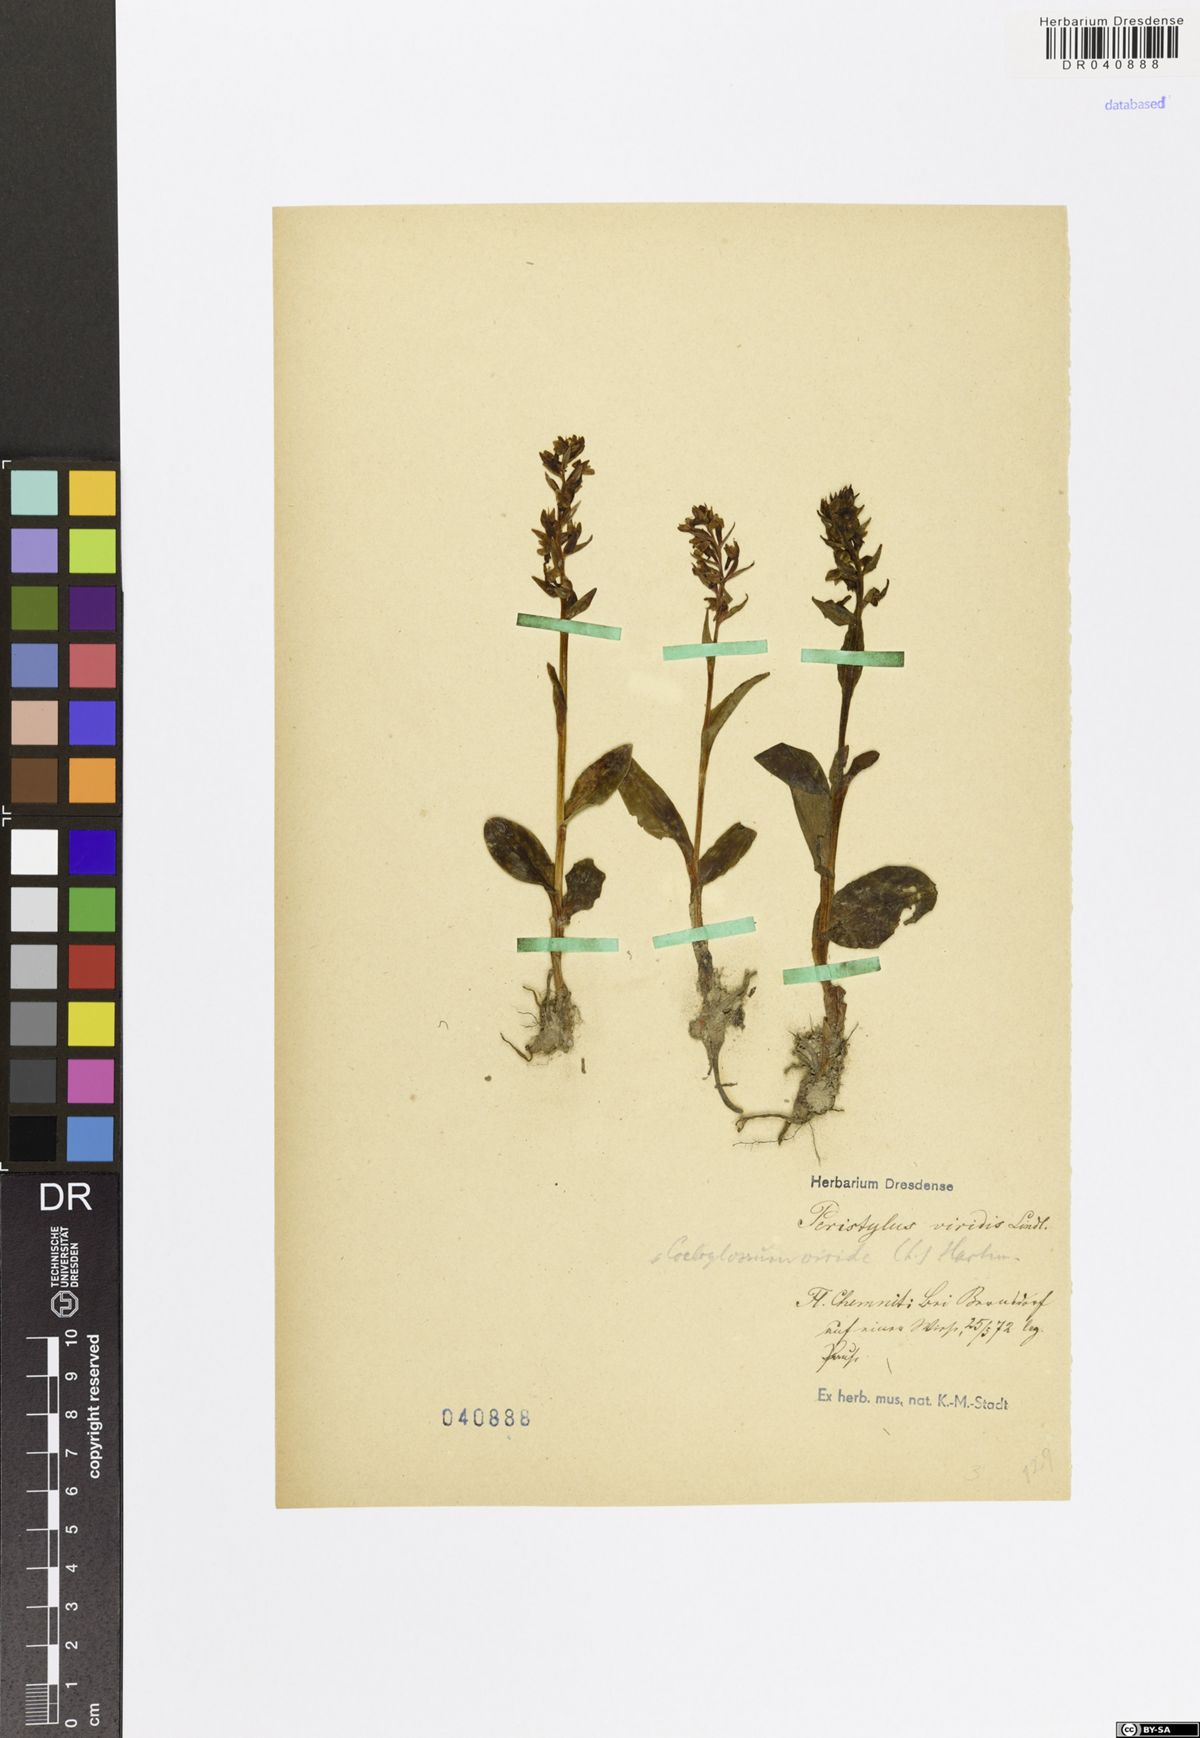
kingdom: Plantae
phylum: Tracheophyta
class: Liliopsida
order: Asparagales
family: Orchidaceae
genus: Dactylorhiza
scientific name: Dactylorhiza viridis
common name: Longbract frog orchid
